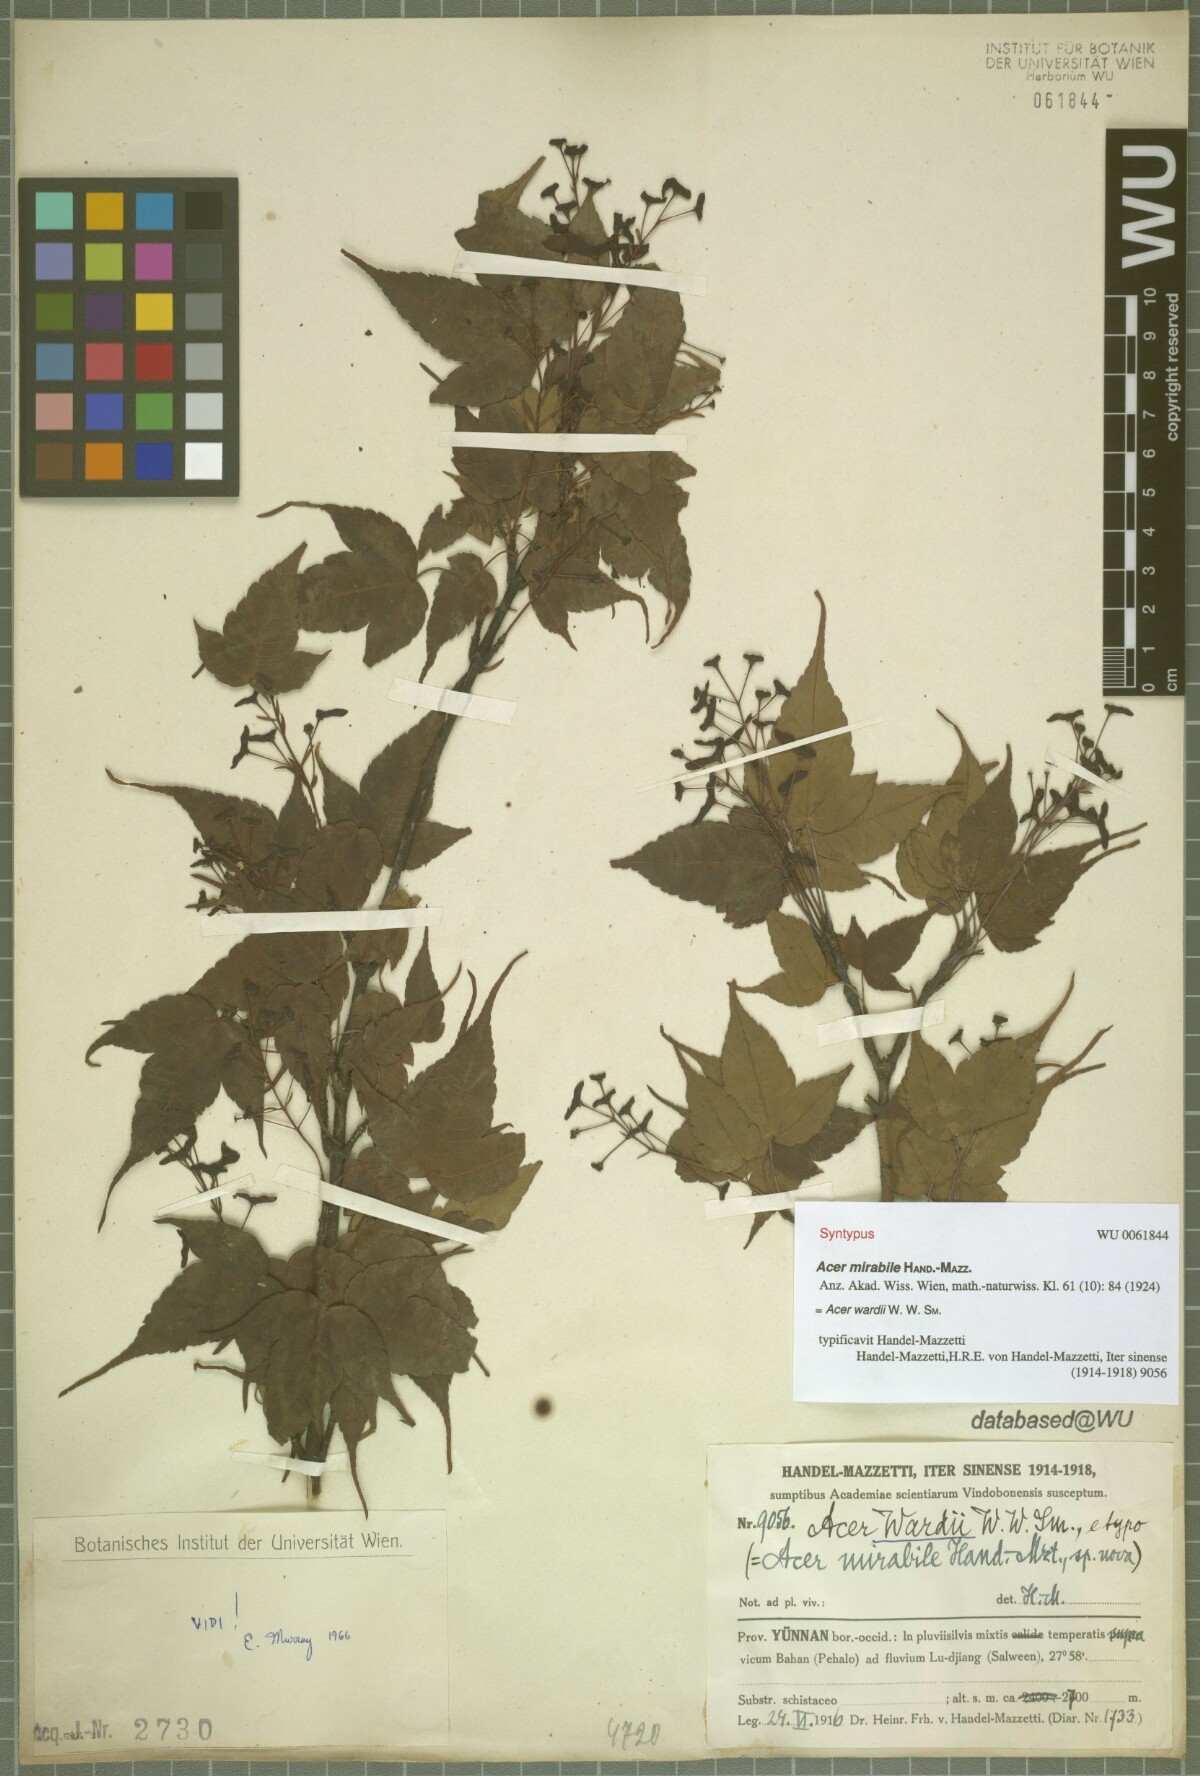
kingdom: Plantae
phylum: Tracheophyta
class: Magnoliopsida
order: Sapindales
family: Sapindaceae
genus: Acer
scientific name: Acer wardii
